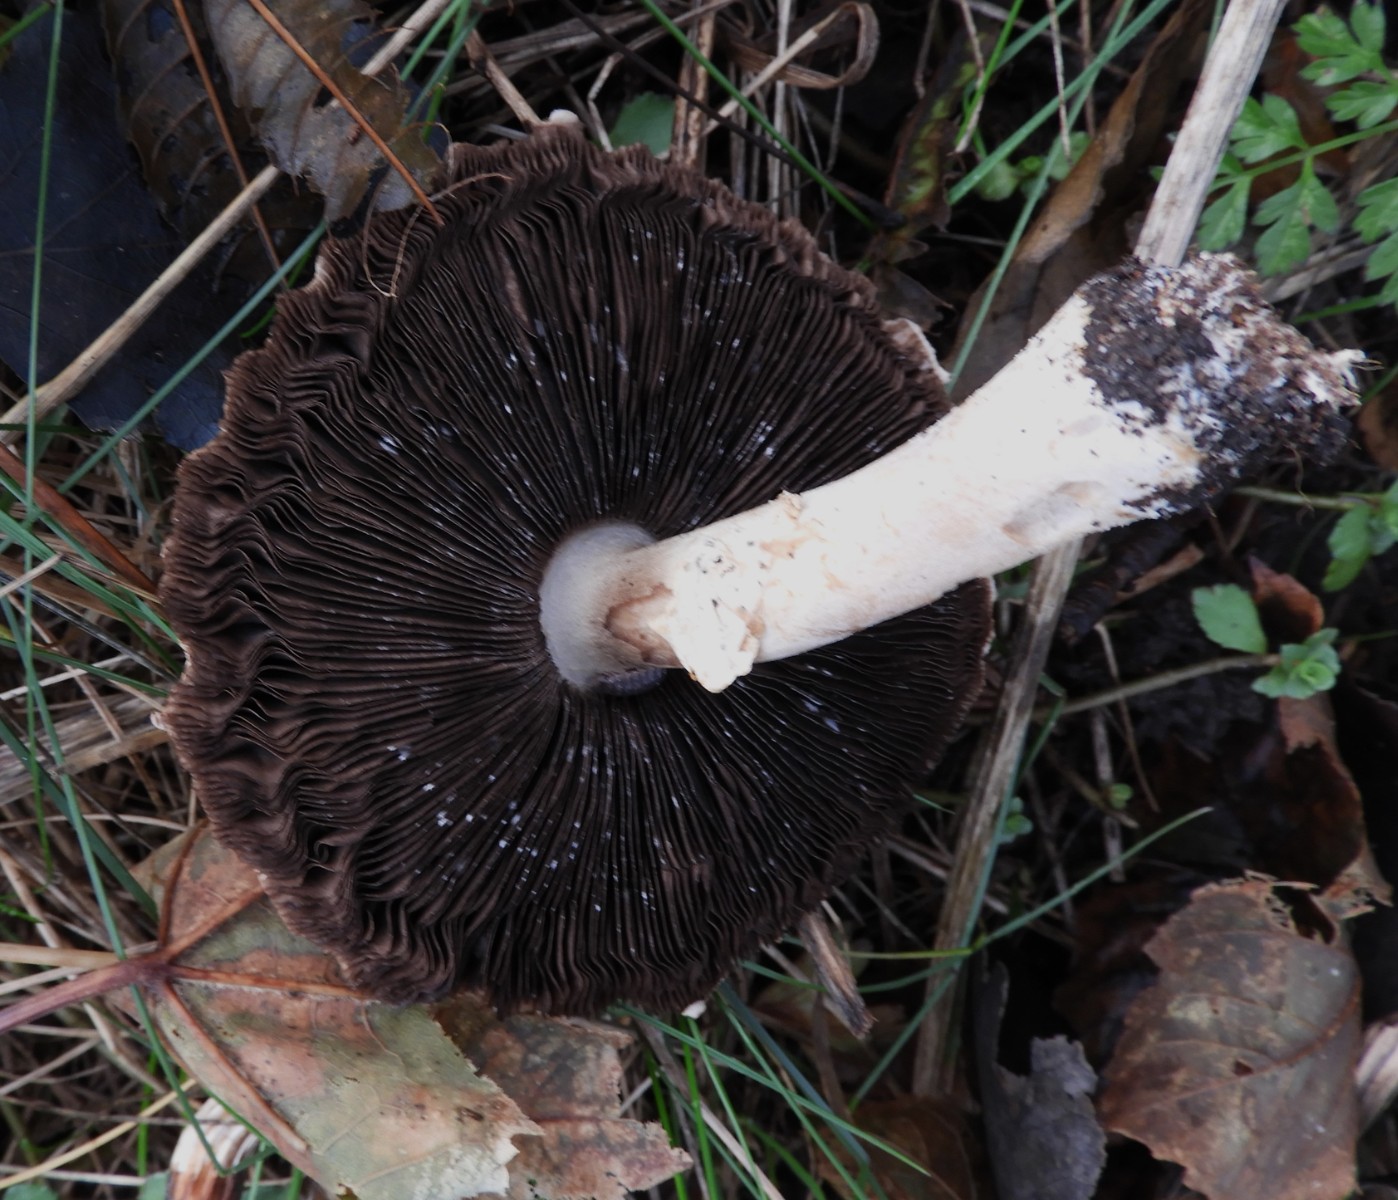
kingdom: Fungi
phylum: Basidiomycota
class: Agaricomycetes
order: Agaricales
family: Agaricaceae
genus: Agaricus
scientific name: Agaricus augustus
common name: prægtig champignon
